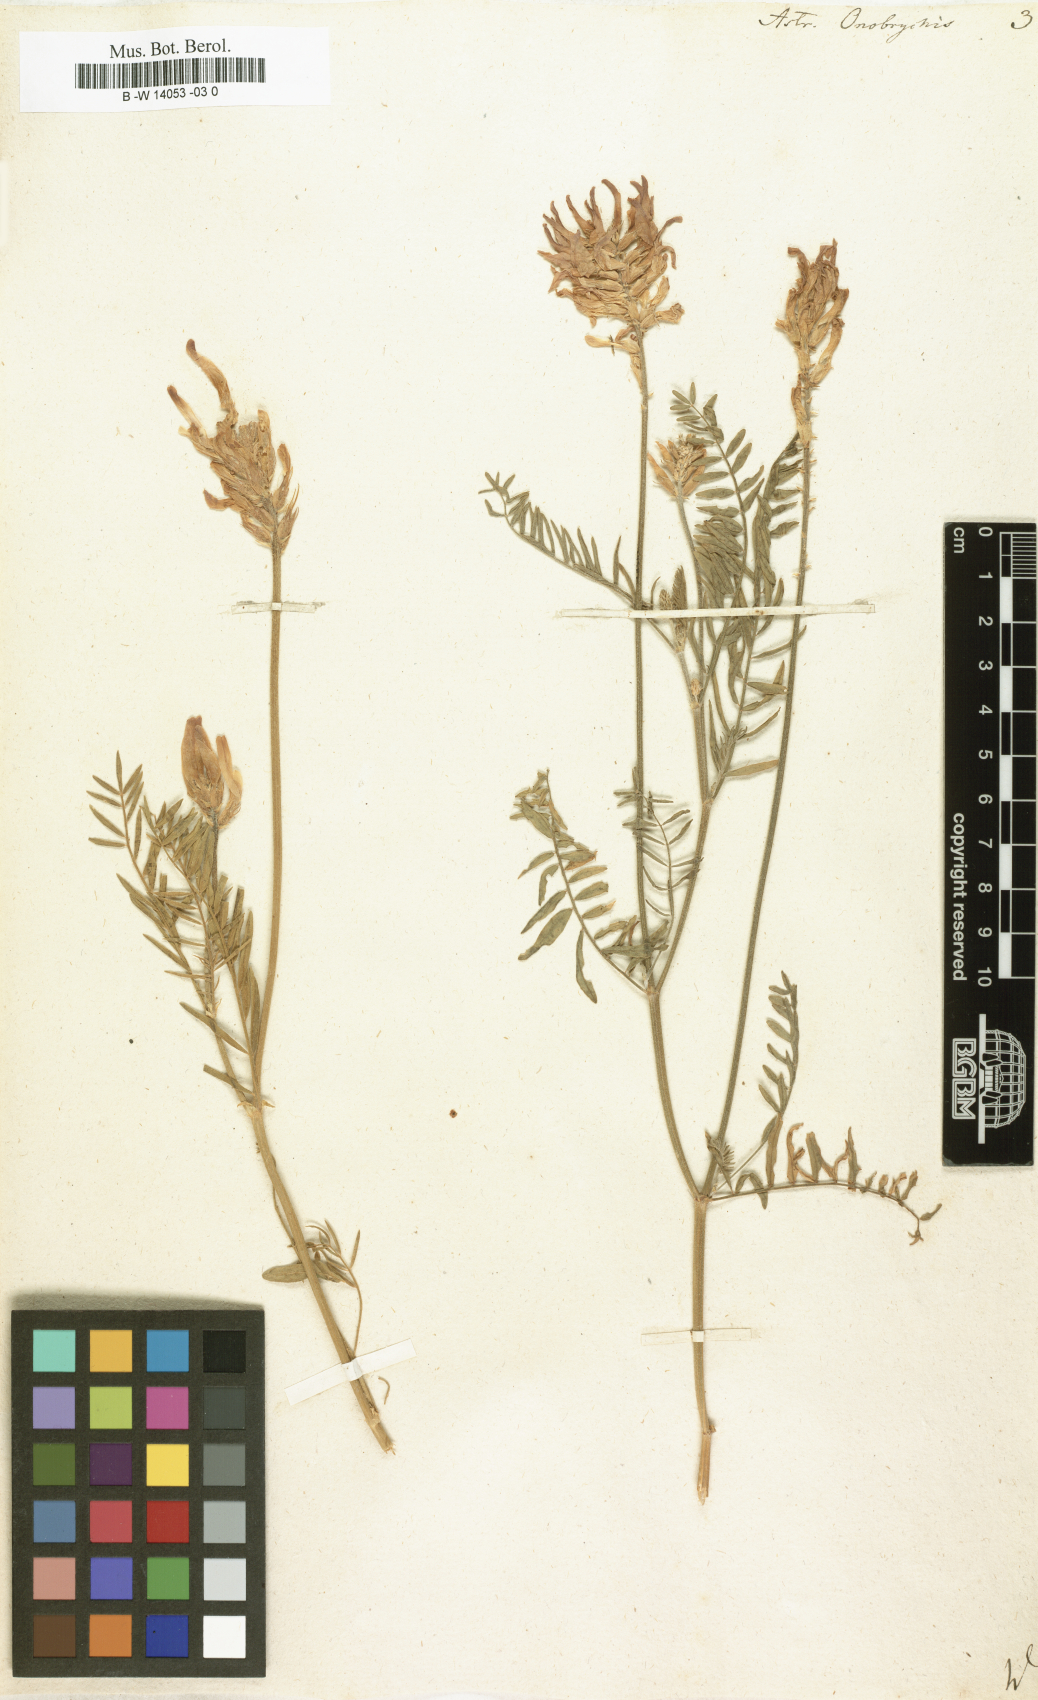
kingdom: Plantae
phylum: Tracheophyta
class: Magnoliopsida
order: Fabales
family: Fabaceae
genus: Astragalus
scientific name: Astragalus onobrychis
